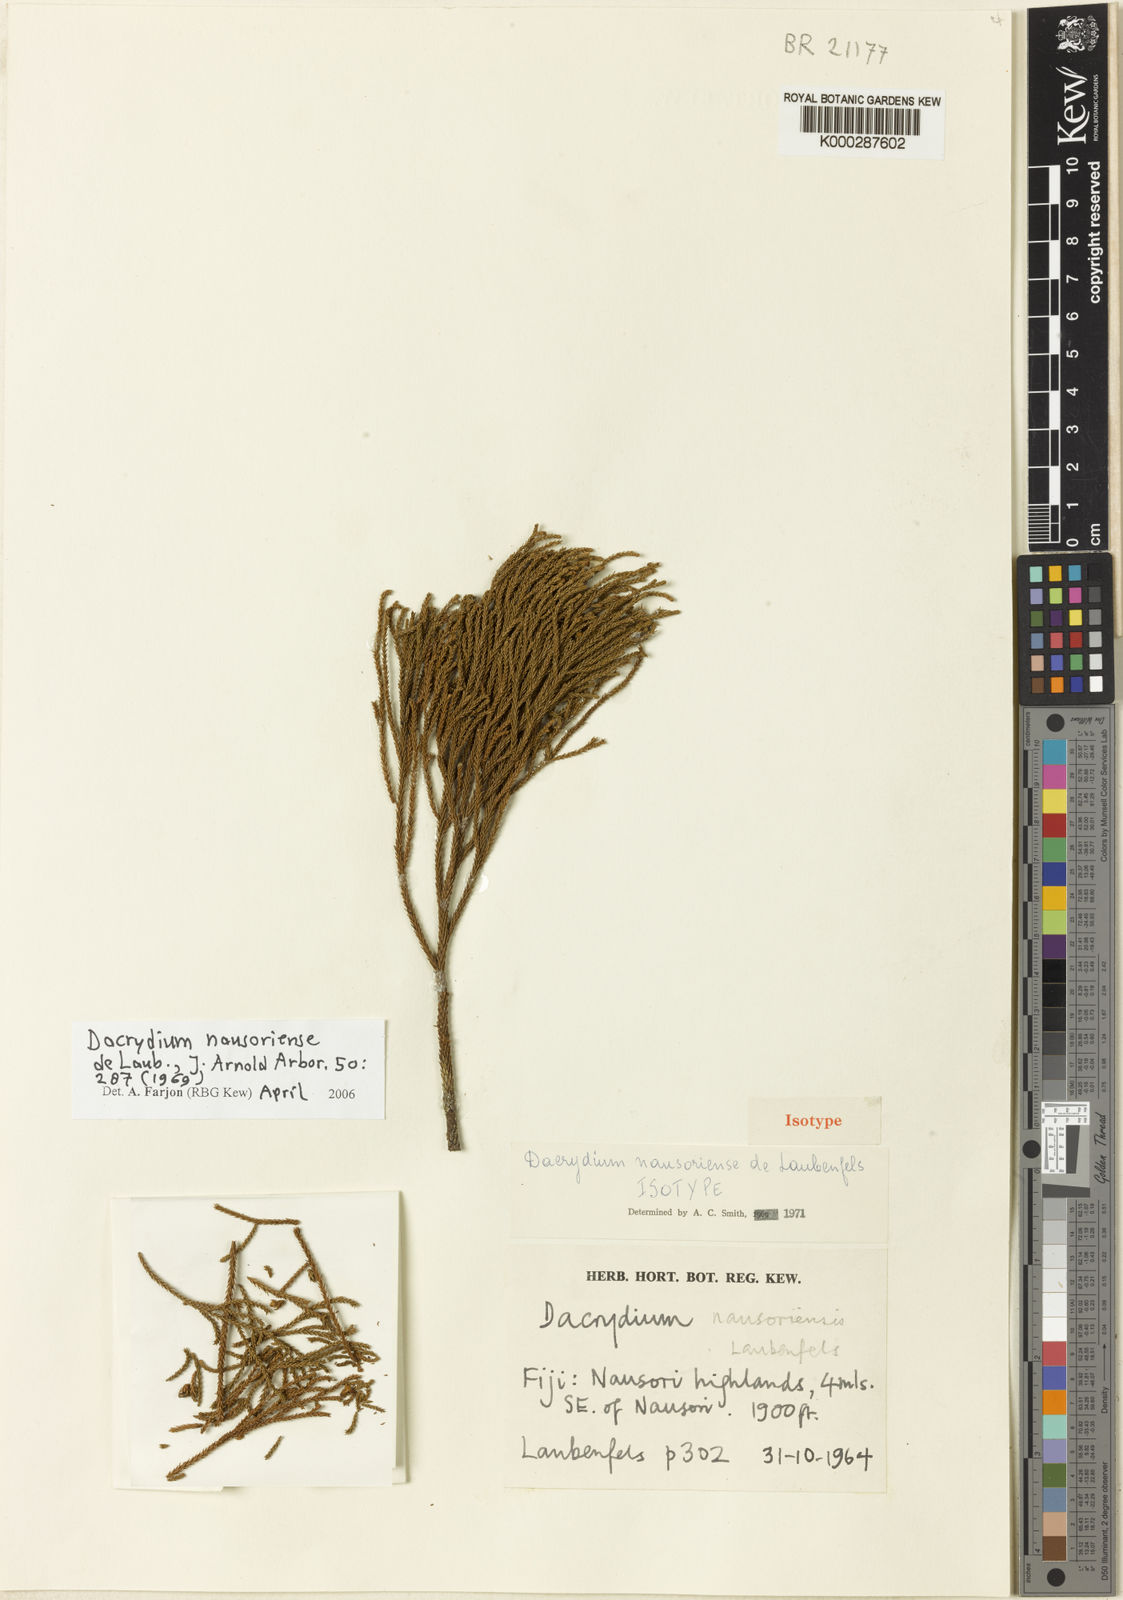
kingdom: Plantae
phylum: Tracheophyta
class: Pinopsida
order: Pinales
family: Podocarpaceae
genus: Dacrydium
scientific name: Dacrydium nausoriense
